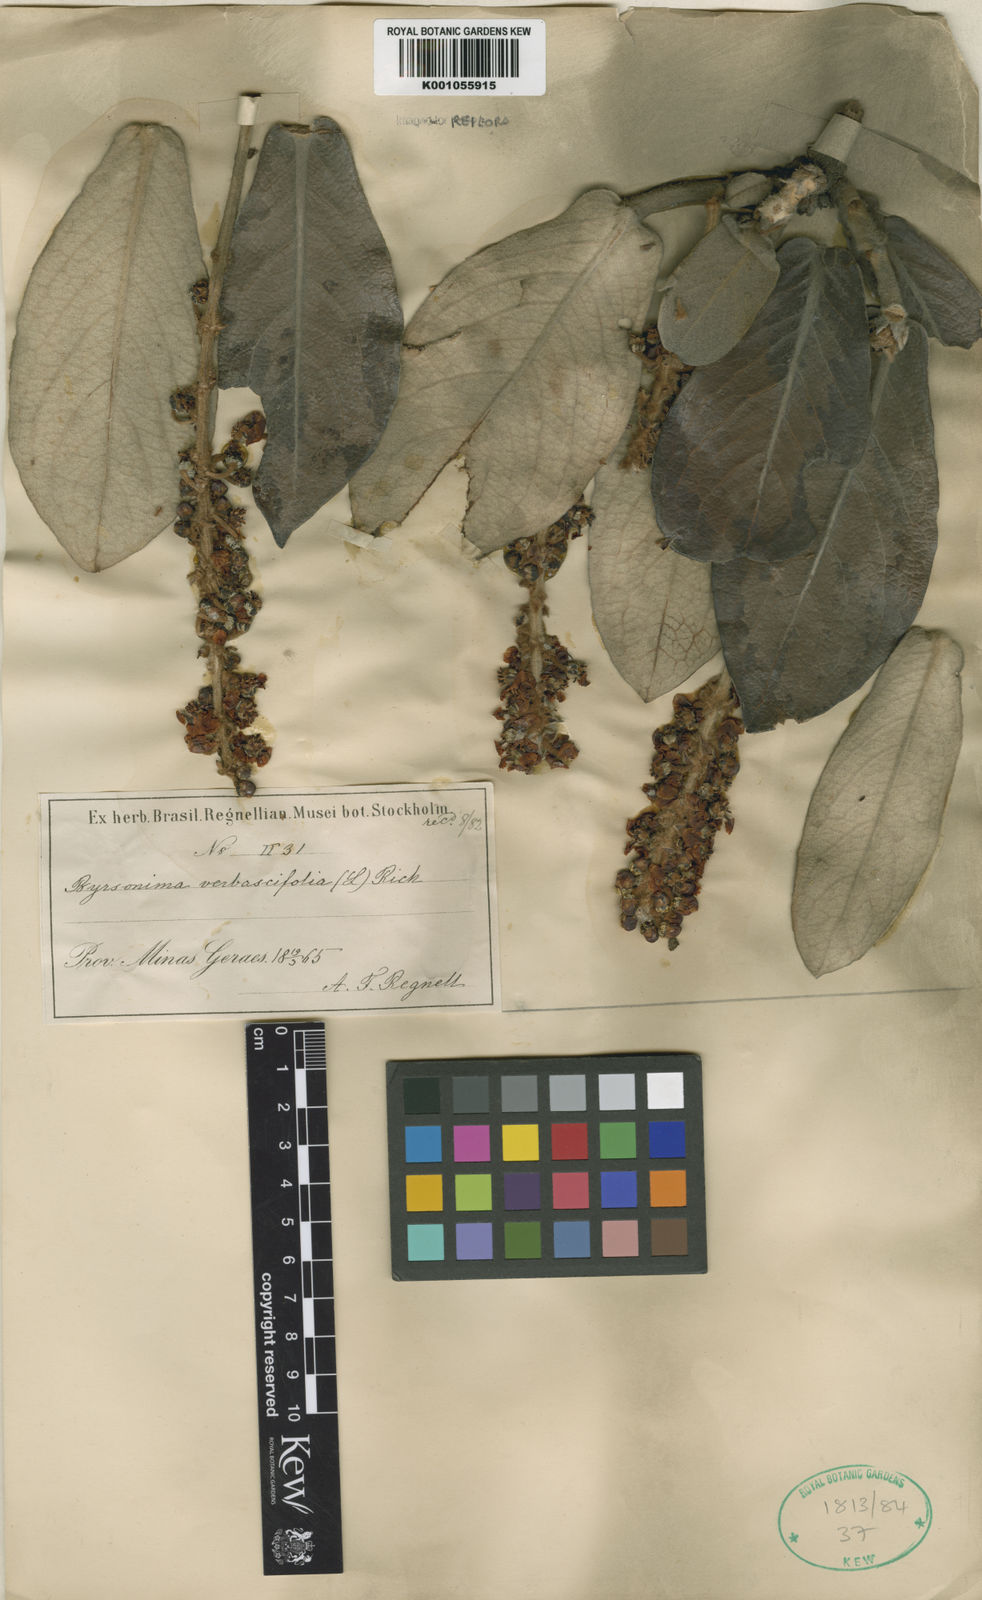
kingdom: Plantae
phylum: Tracheophyta
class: Magnoliopsida
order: Malpighiales
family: Malpighiaceae
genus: Byrsonima
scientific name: Byrsonima verbascifolia
